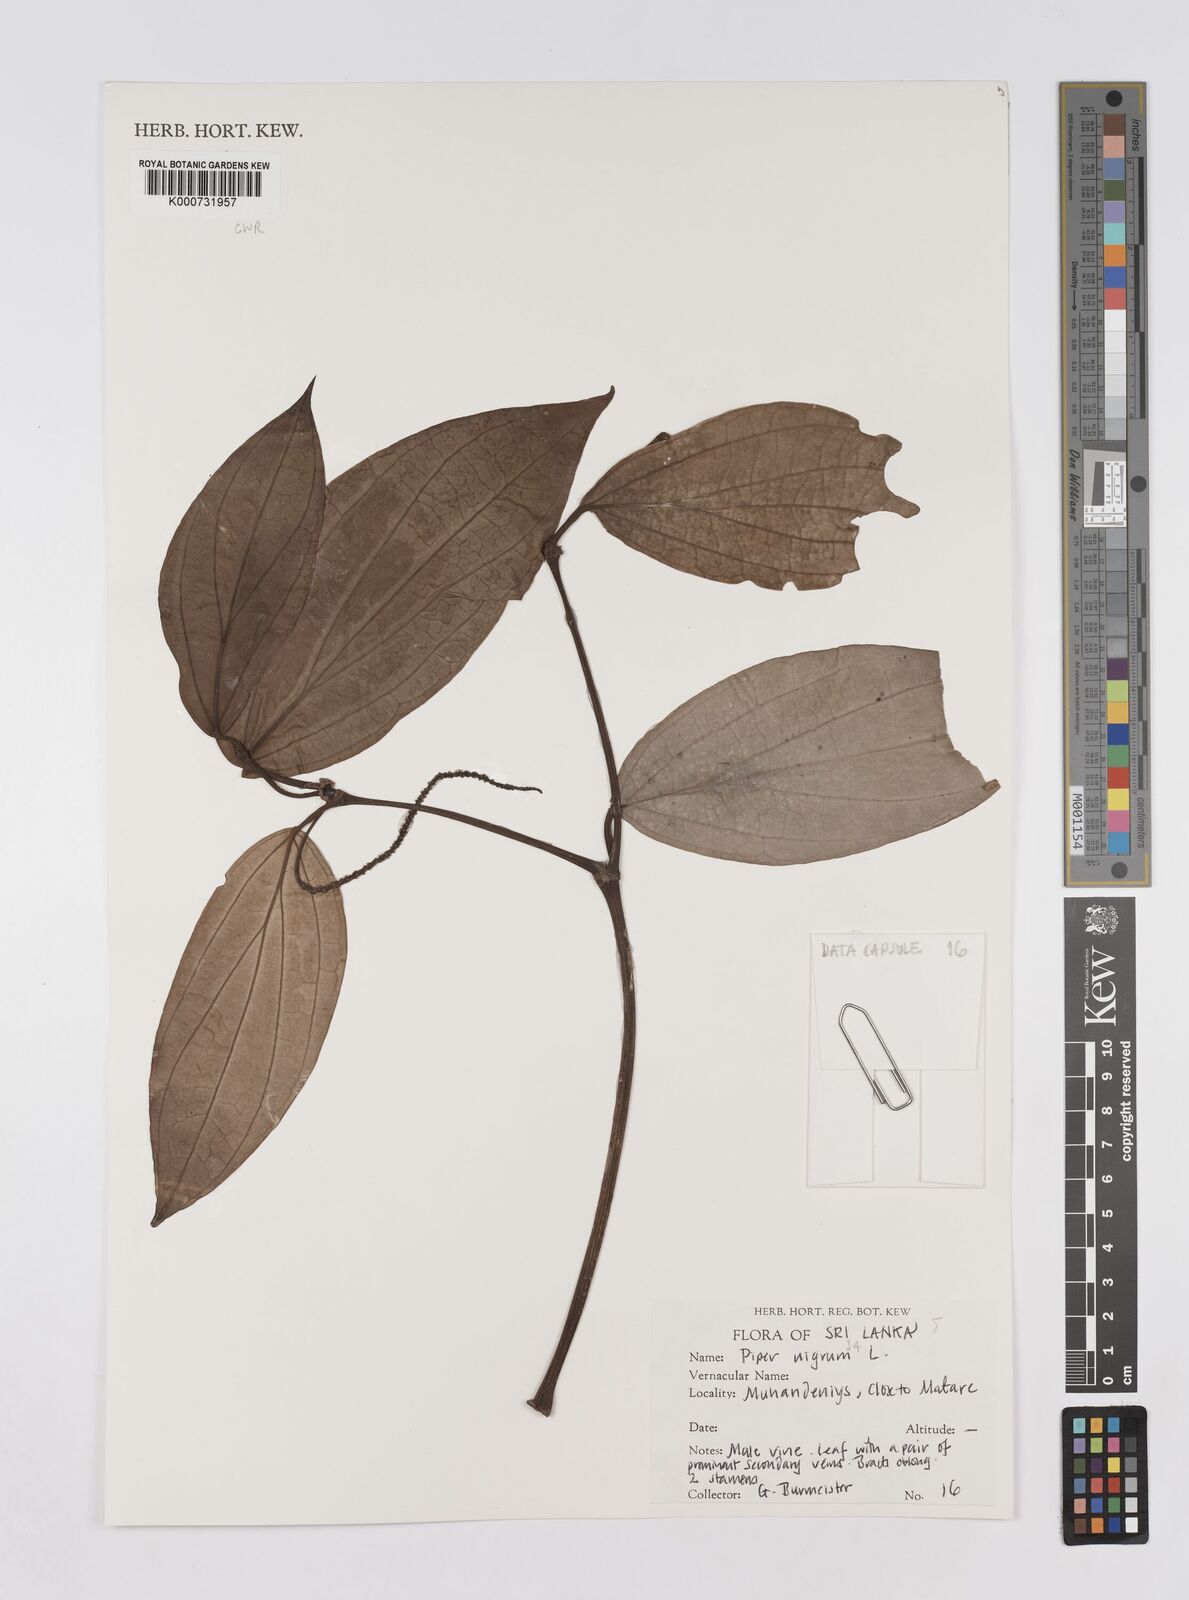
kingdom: Plantae
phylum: Tracheophyta
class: Magnoliopsida
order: Piperales
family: Piperaceae
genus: Piper
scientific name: Piper nigrum
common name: Black pepper
